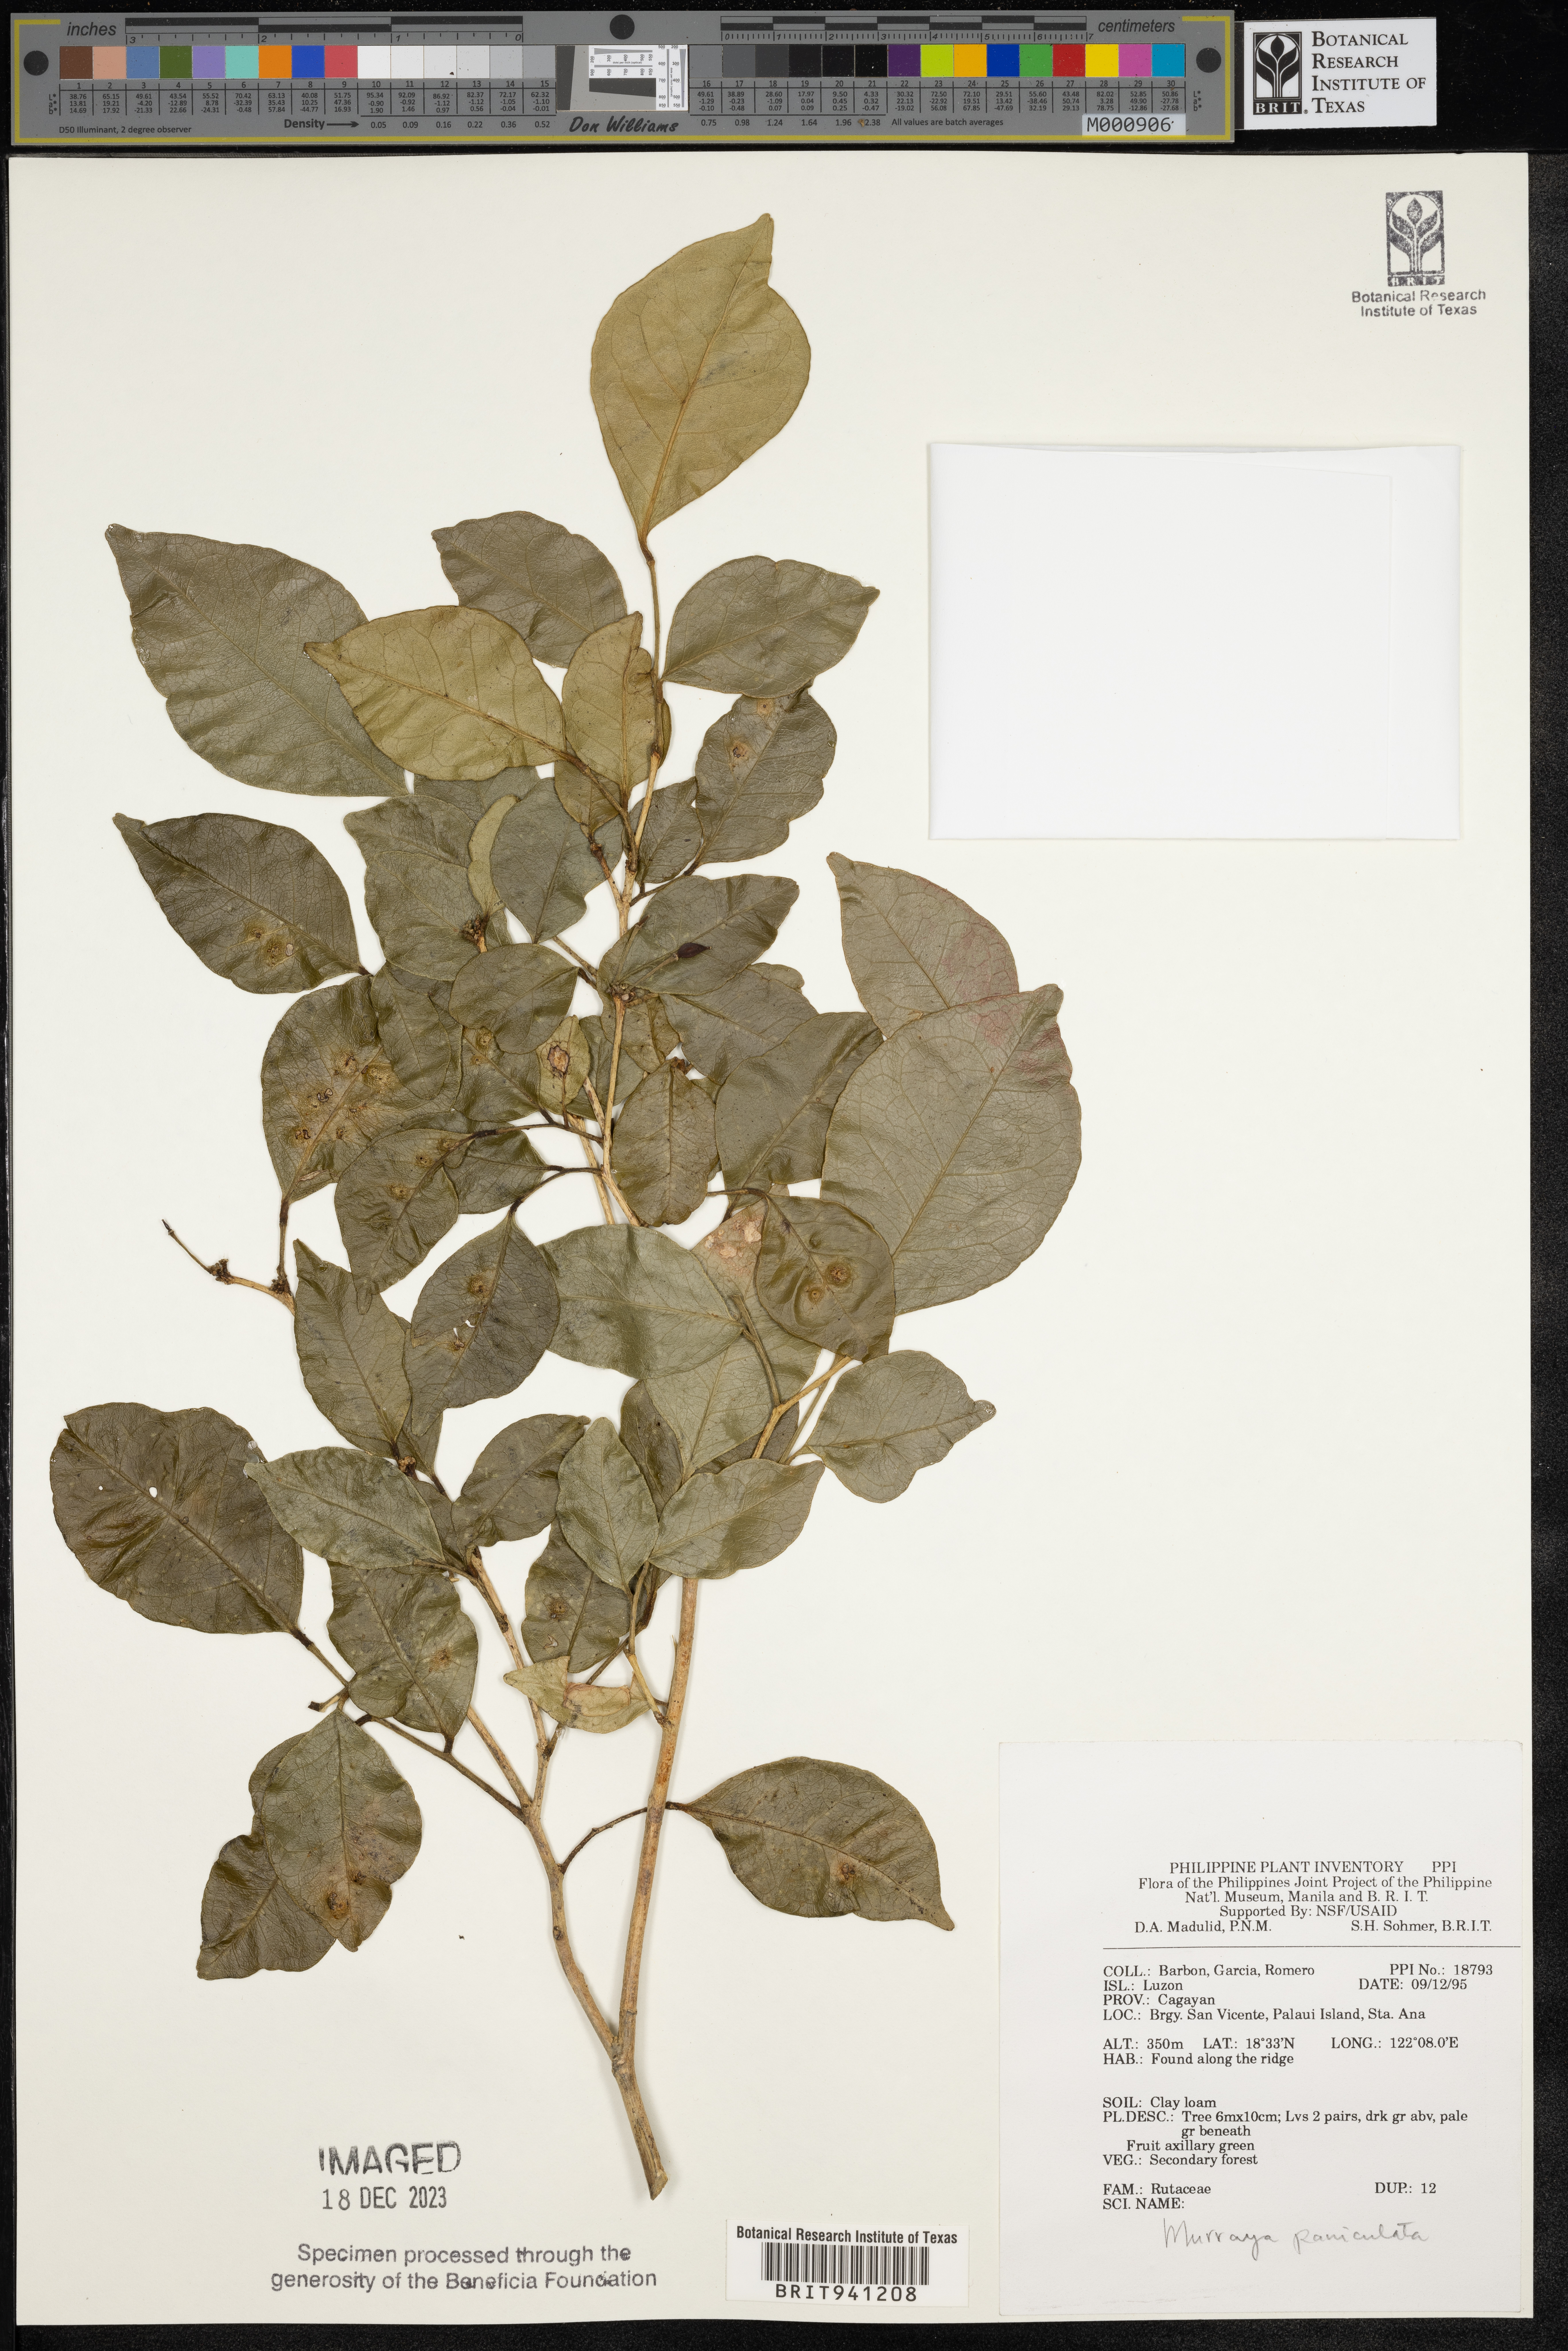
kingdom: Plantae
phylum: Tracheophyta
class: Magnoliopsida
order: Sapindales
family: Rutaceae
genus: Murraya
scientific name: Murraya
